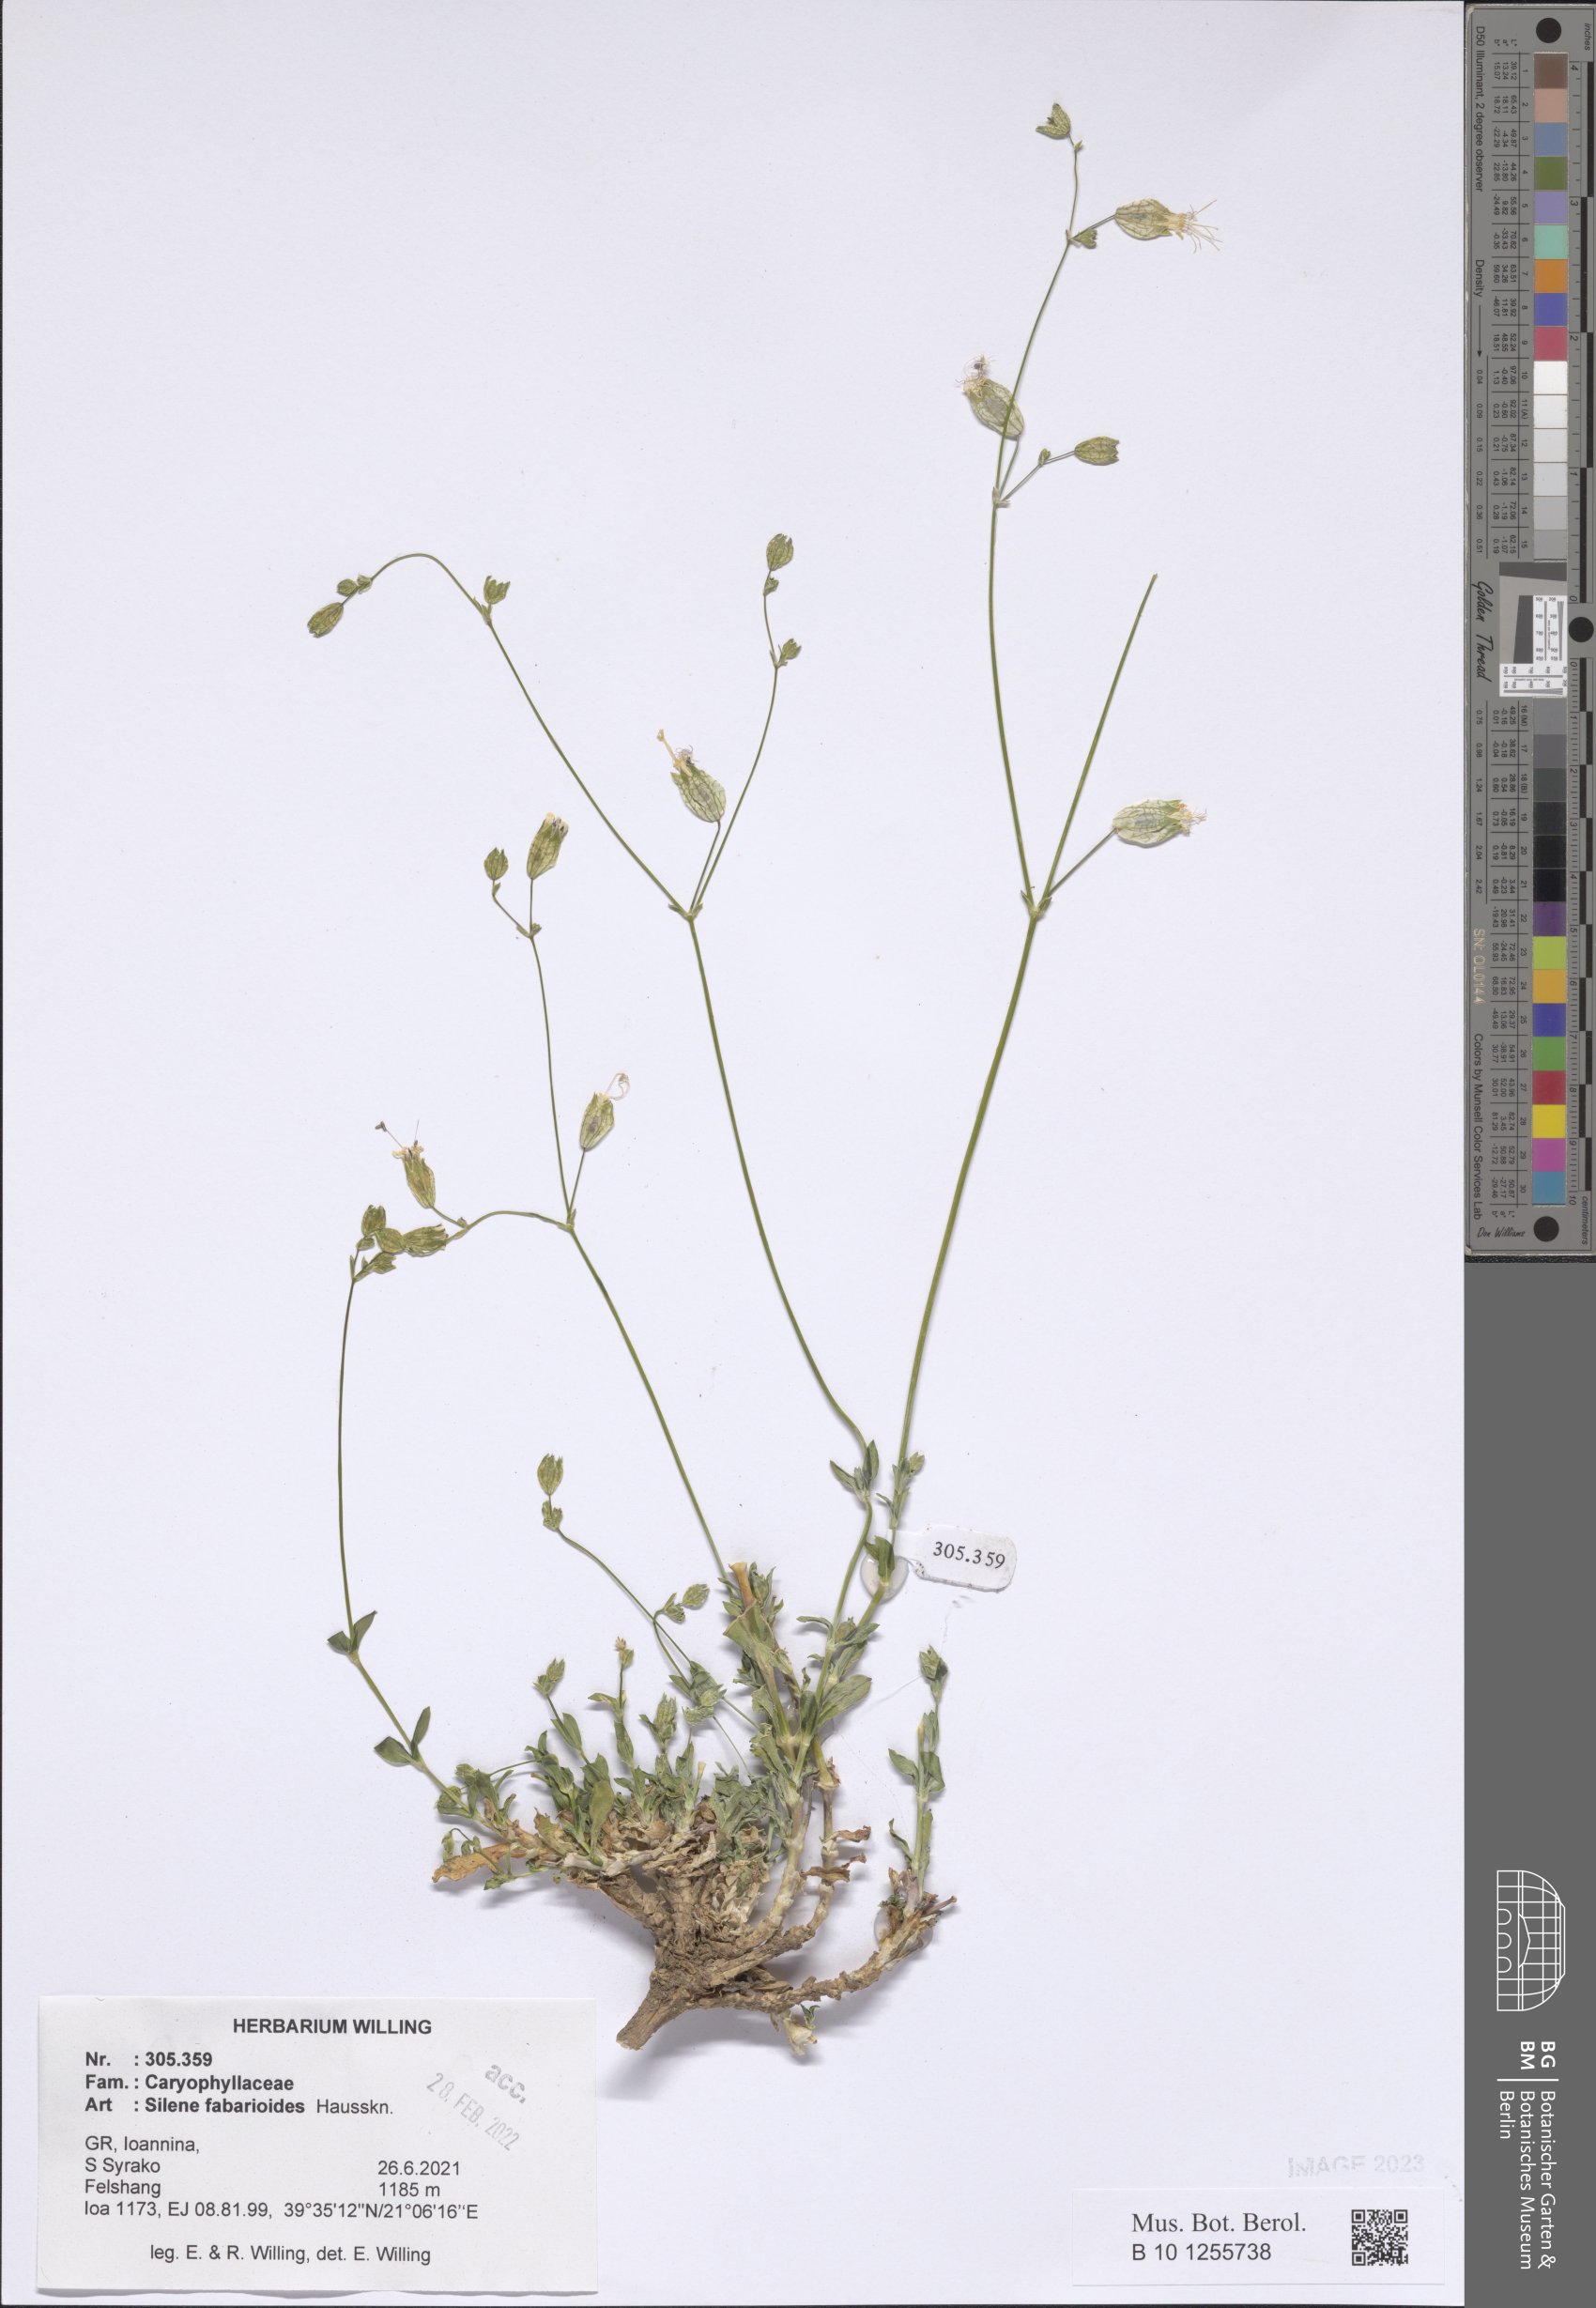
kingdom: Plantae
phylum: Tracheophyta
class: Magnoliopsida
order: Caryophyllales
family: Caryophyllaceae
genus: Silene
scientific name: Silene fabarioides
